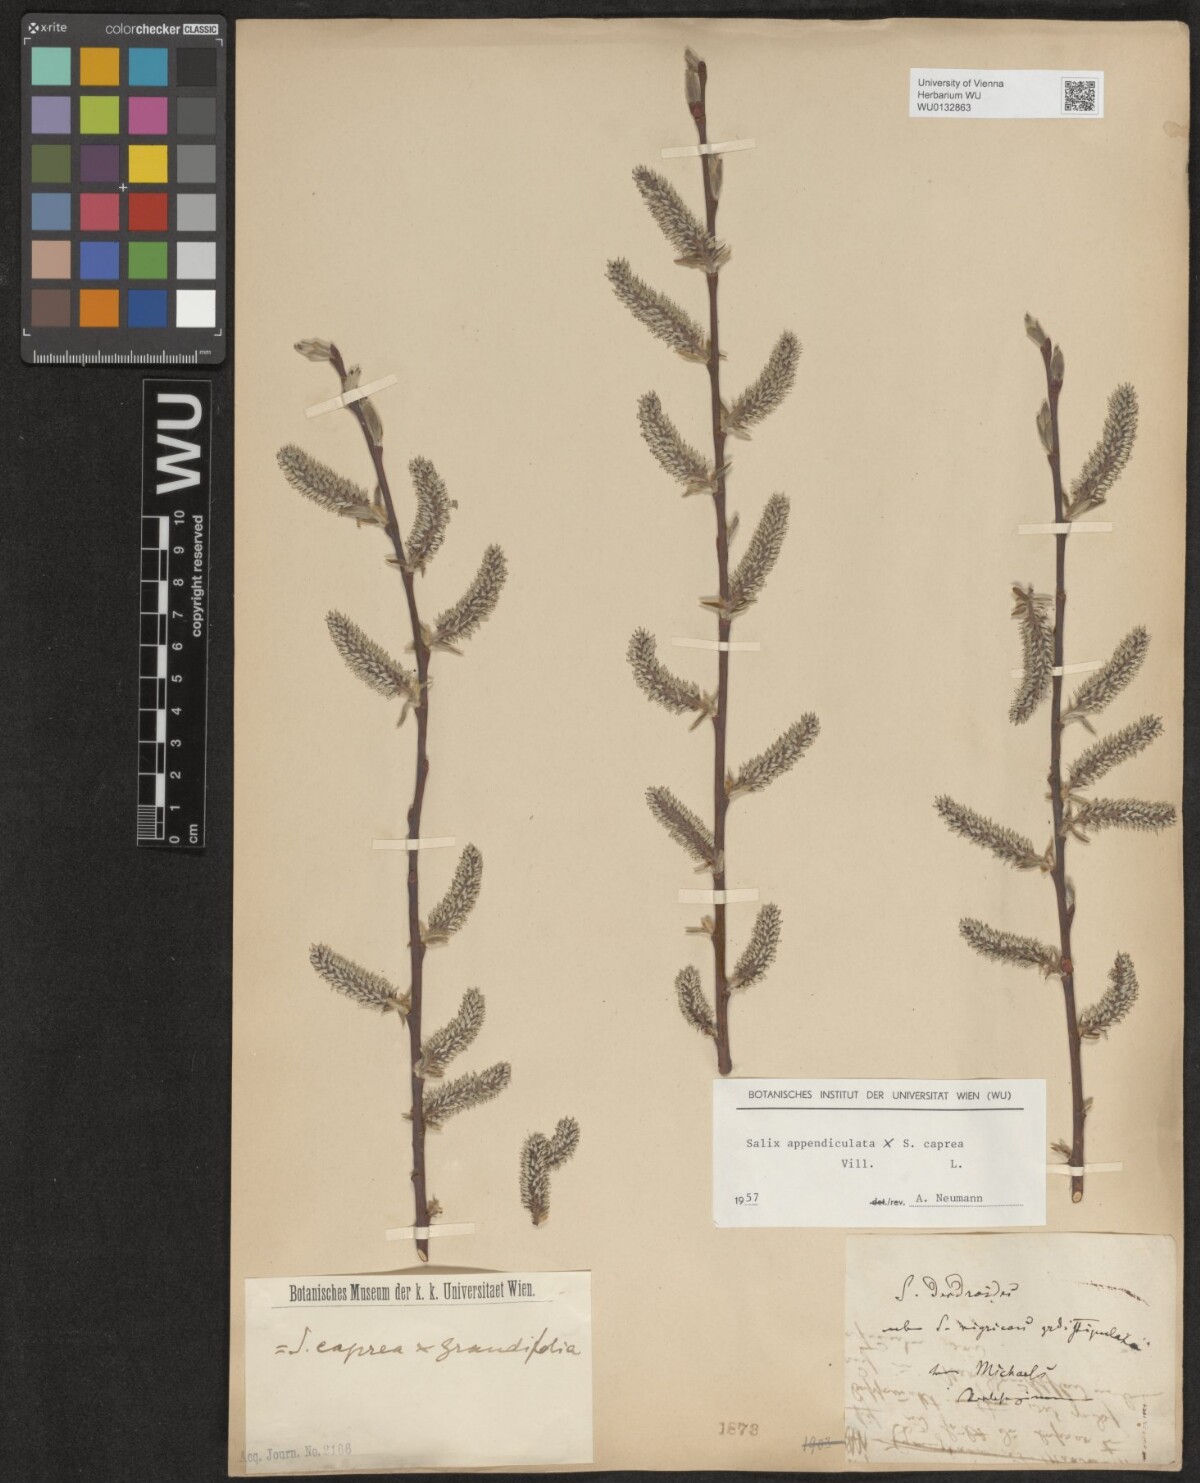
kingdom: Plantae
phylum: Tracheophyta
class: Magnoliopsida
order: Malpighiales
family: Salicaceae
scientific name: Salicaceae
